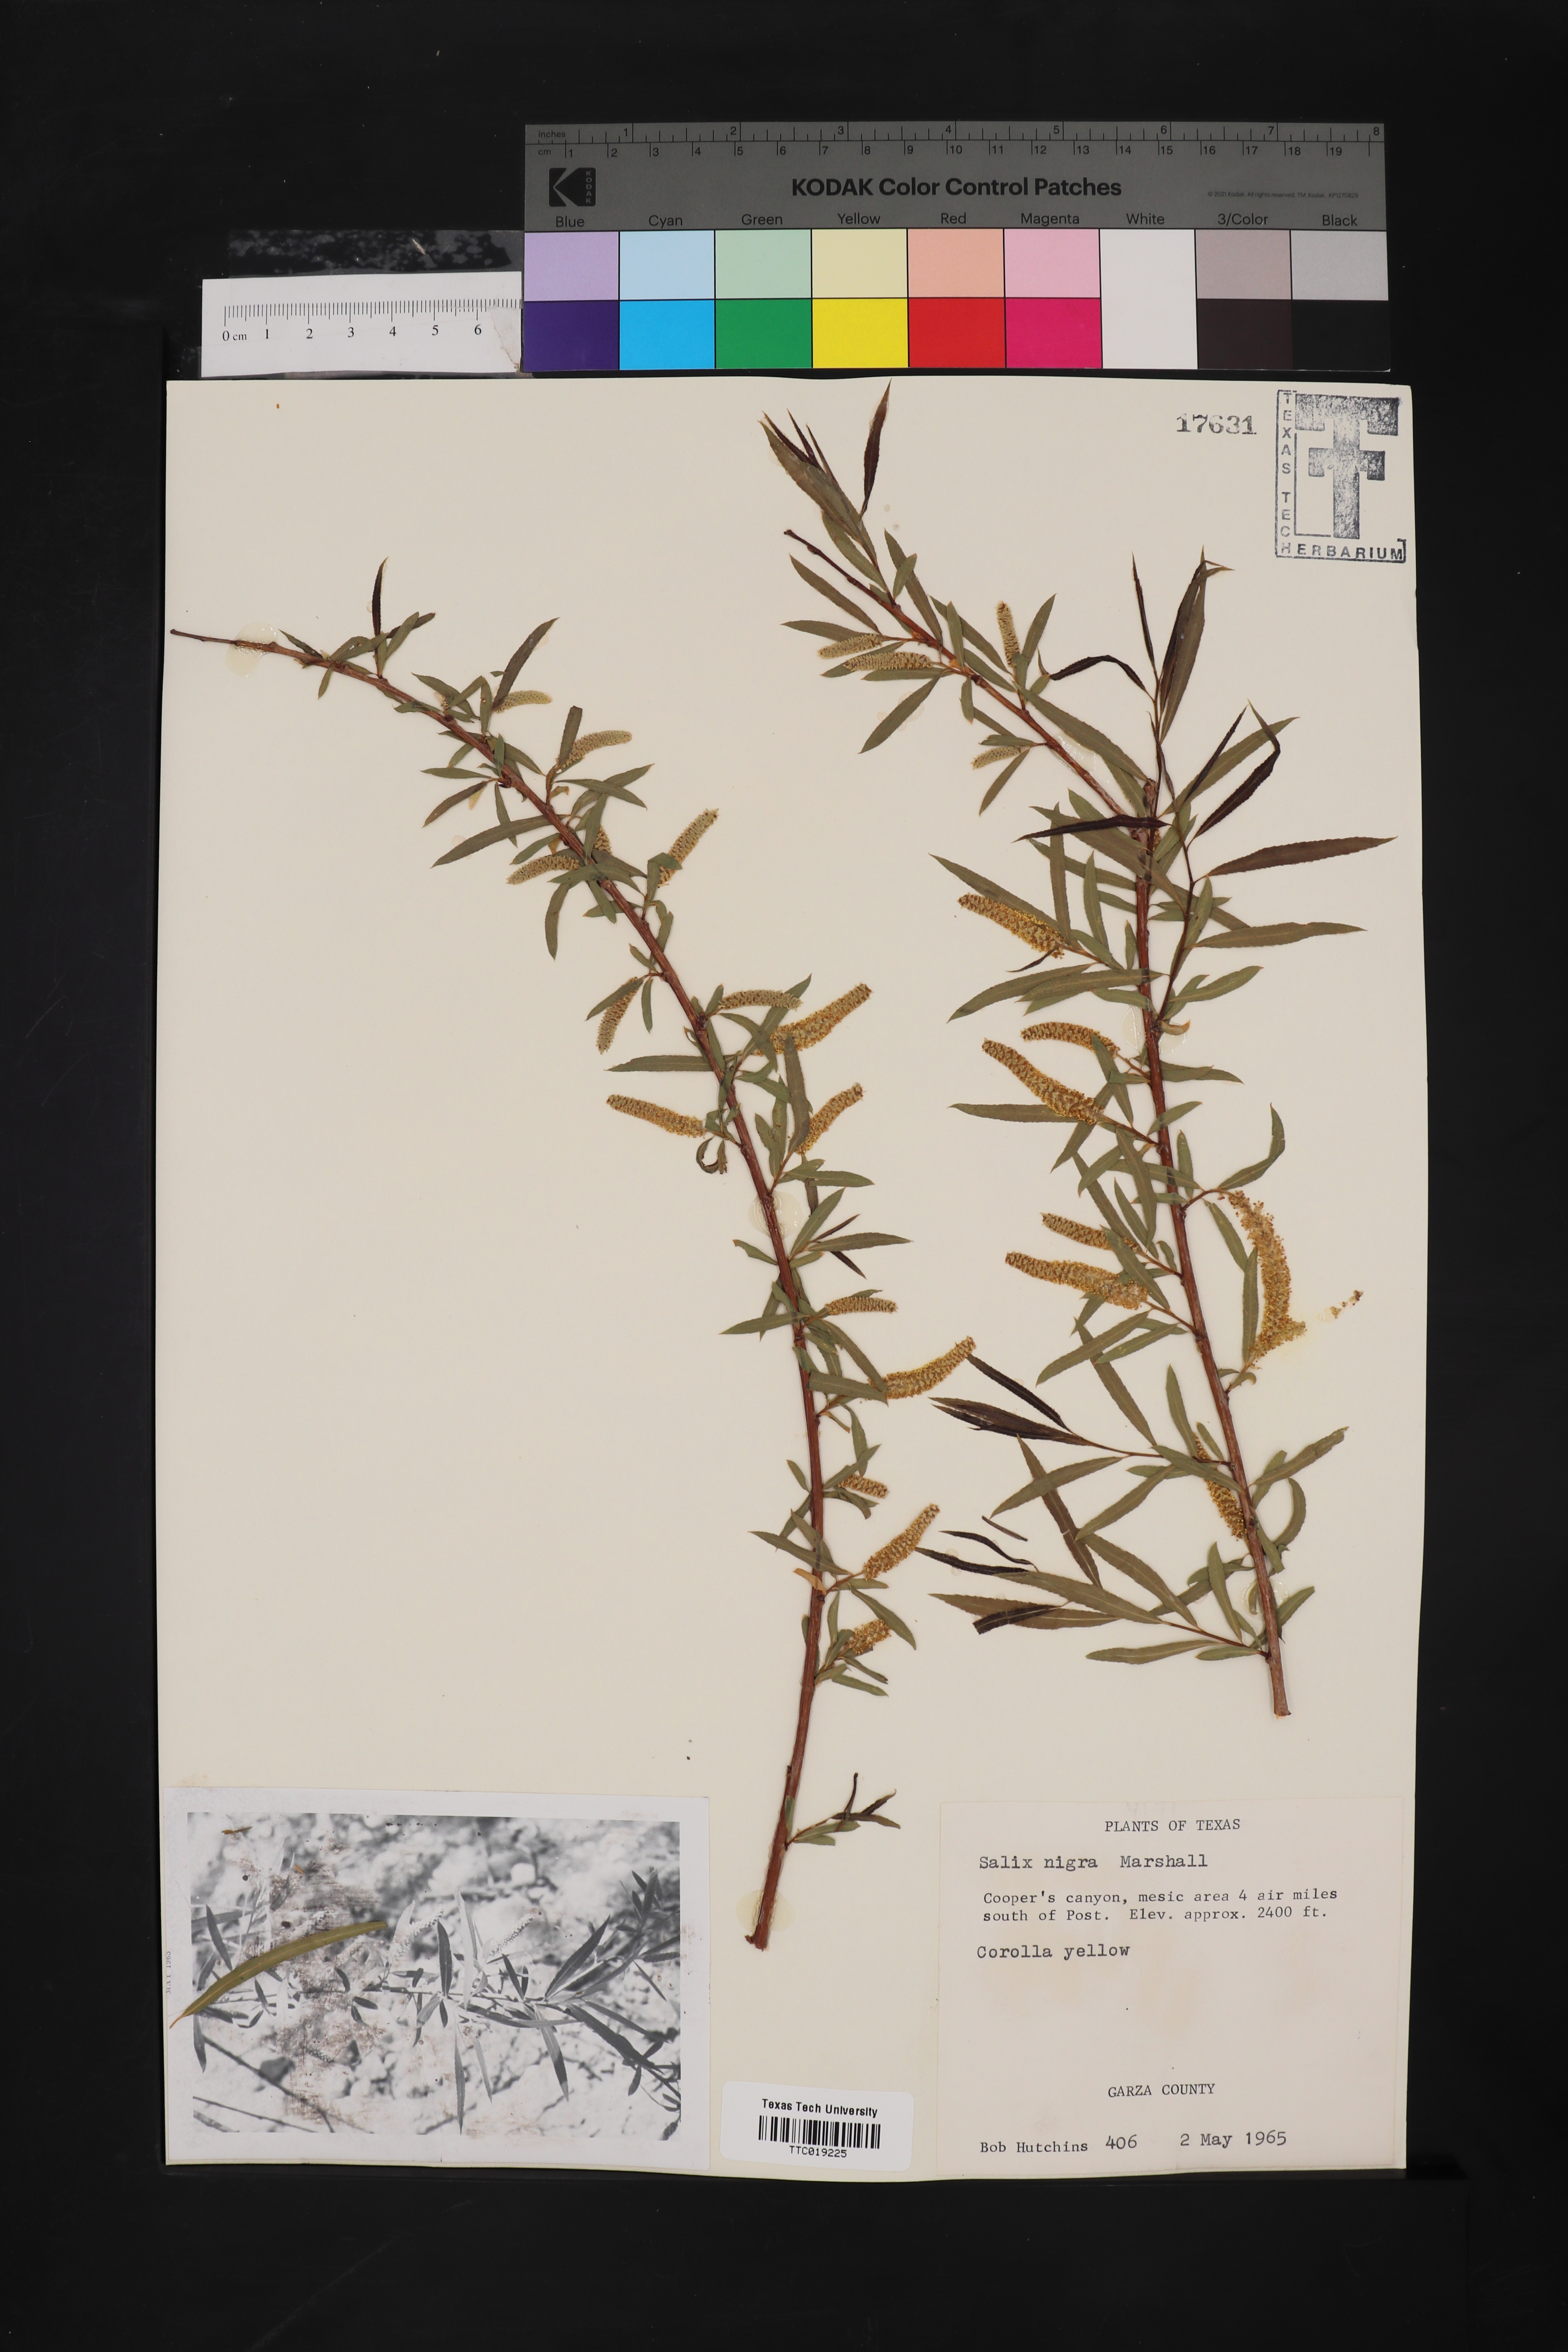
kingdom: Plantae
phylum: Tracheophyta
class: Magnoliopsida
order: Malpighiales
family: Salicaceae
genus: Salix
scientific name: Salix nigra
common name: Black willow
